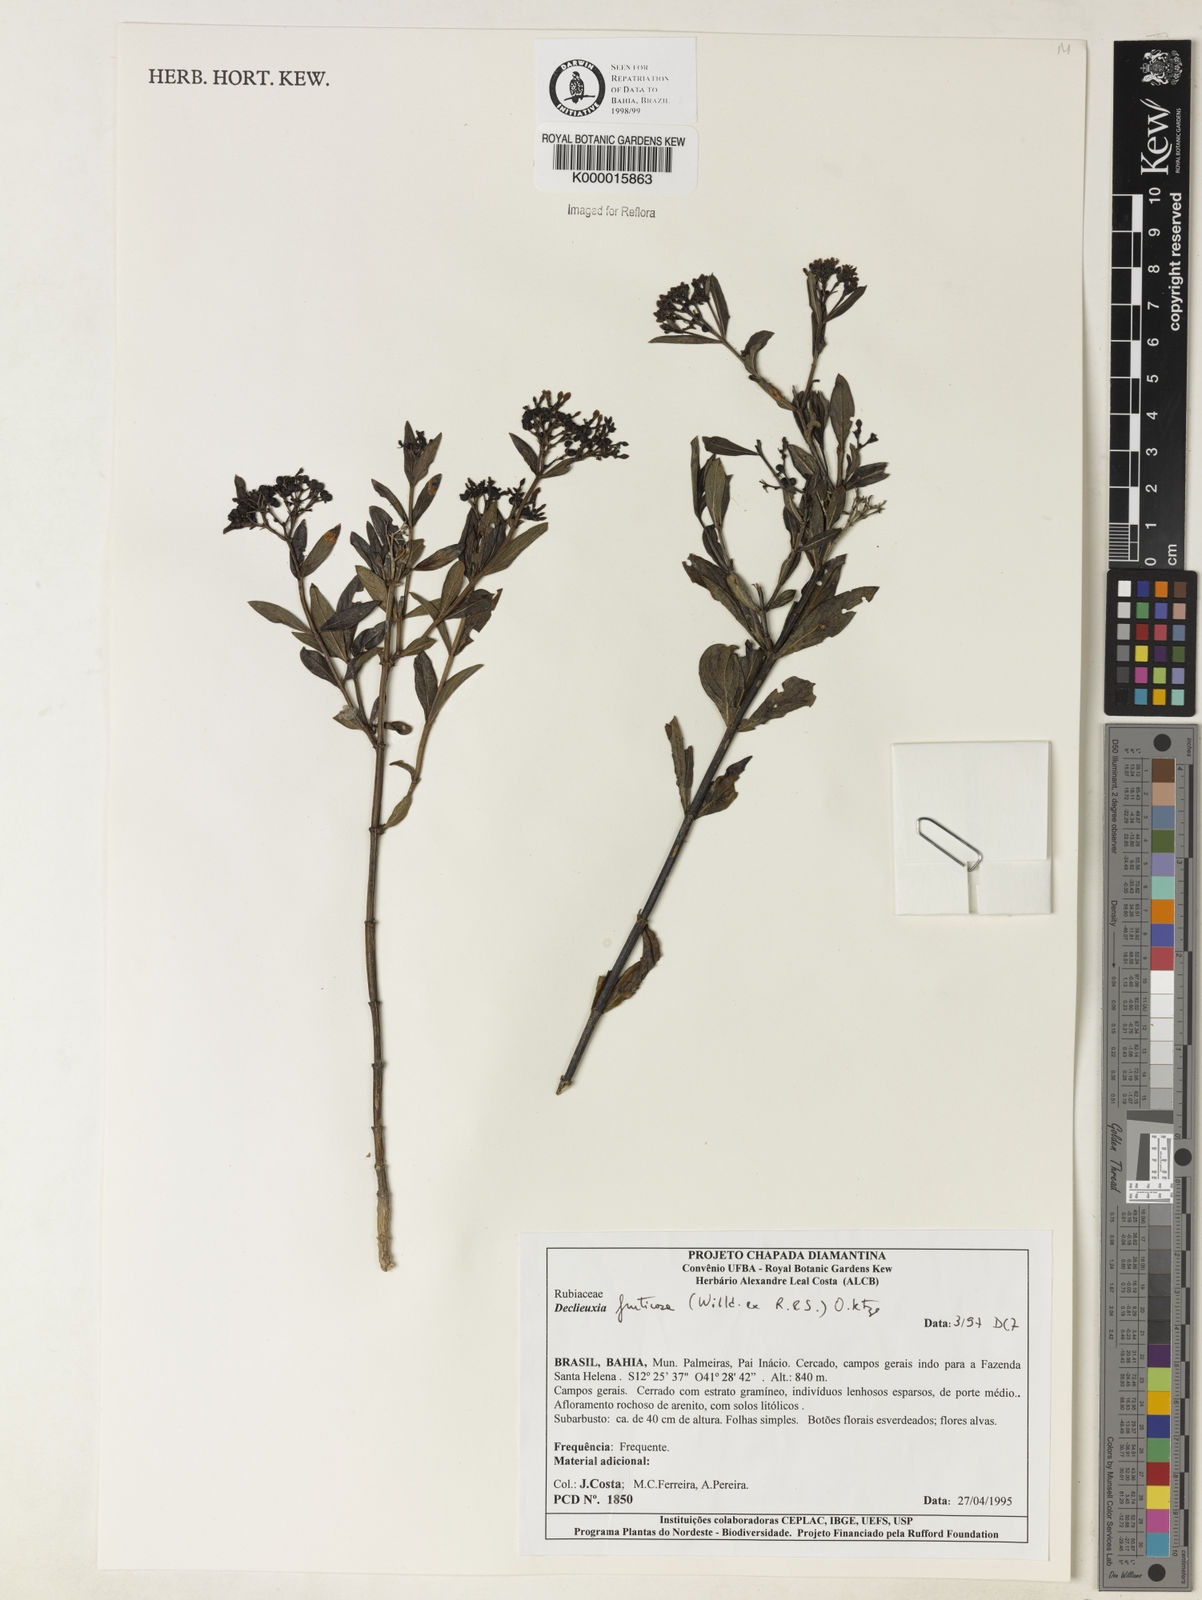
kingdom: Plantae
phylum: Tracheophyta
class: Magnoliopsida
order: Gentianales
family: Rubiaceae
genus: Declieuxia
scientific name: Declieuxia fruticosa
